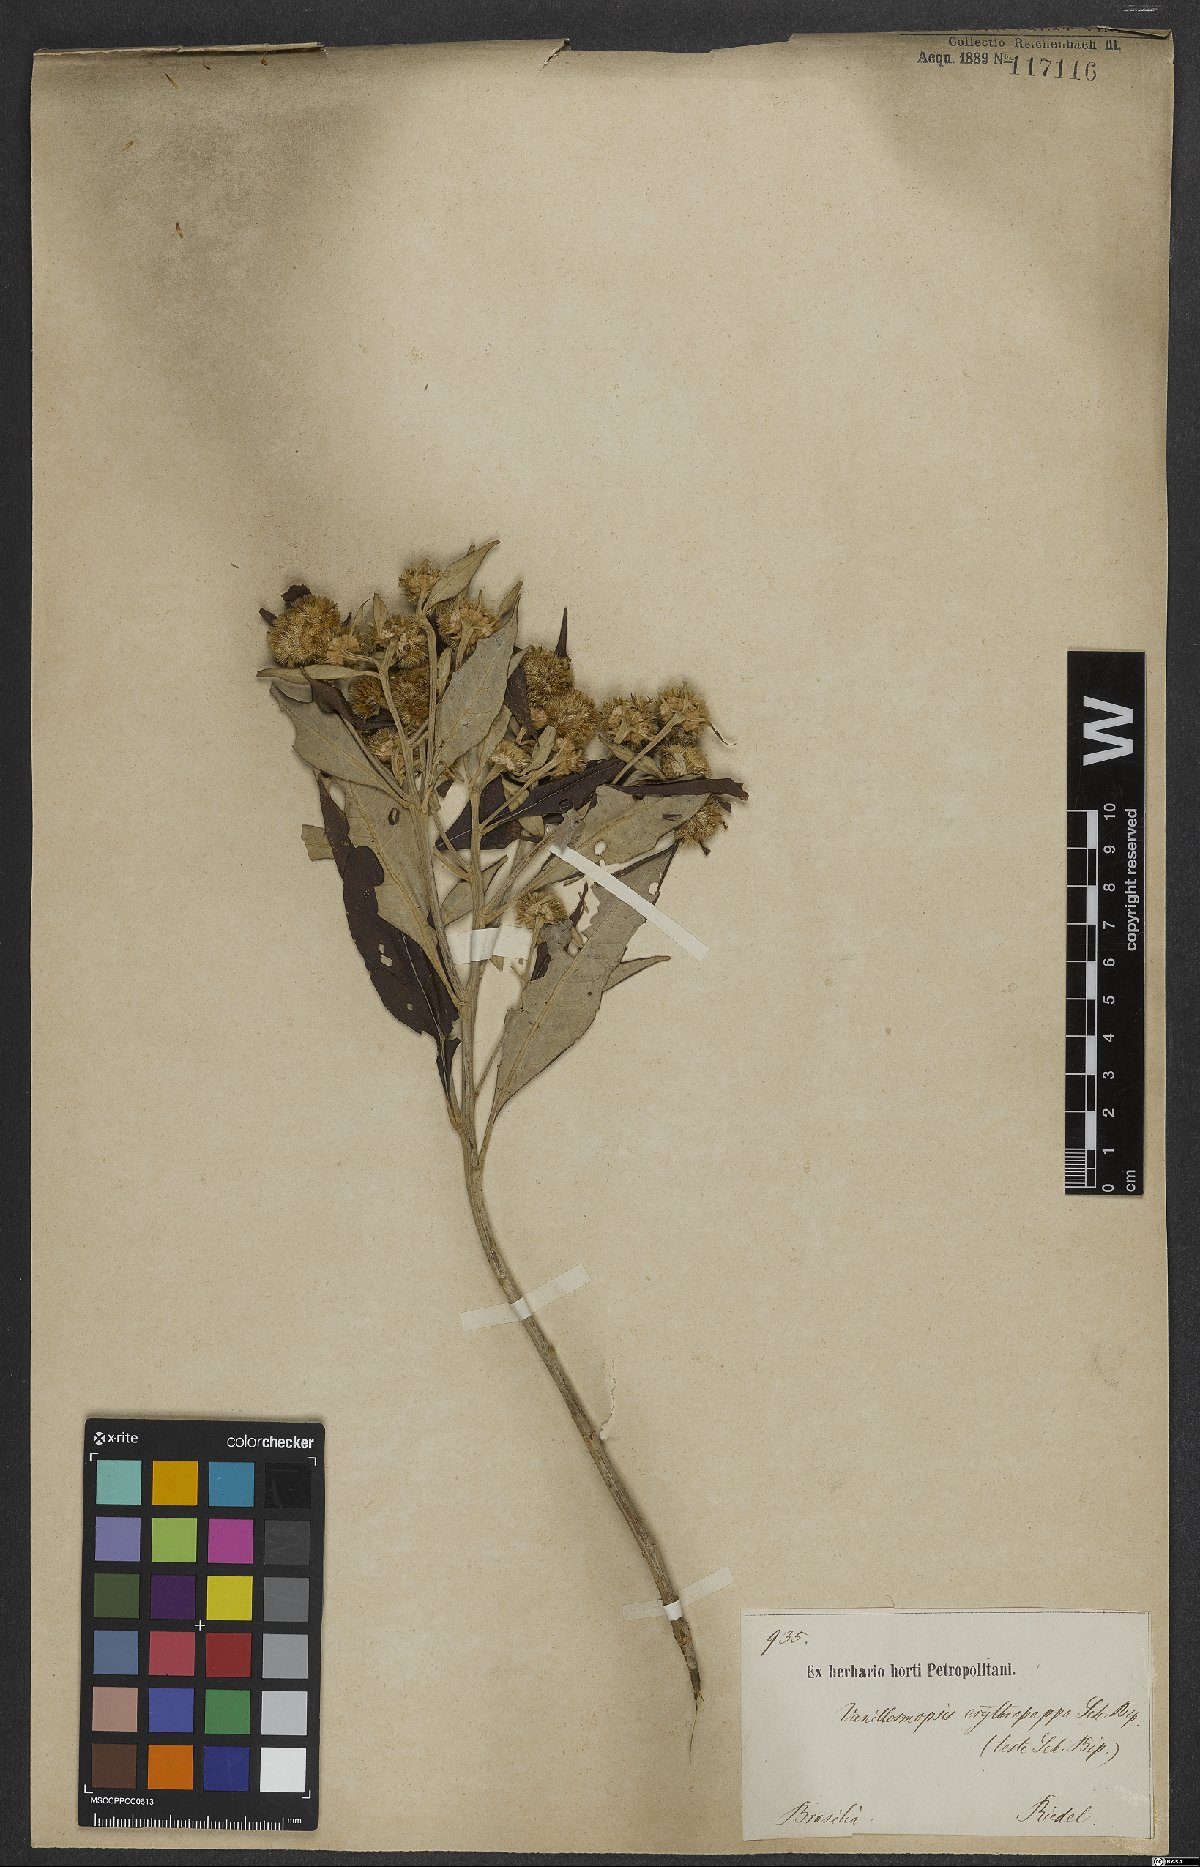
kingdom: Plantae
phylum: Tracheophyta
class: Magnoliopsida
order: Asterales
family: Asteraceae
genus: Eremanthus
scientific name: Eremanthus erythropappus
